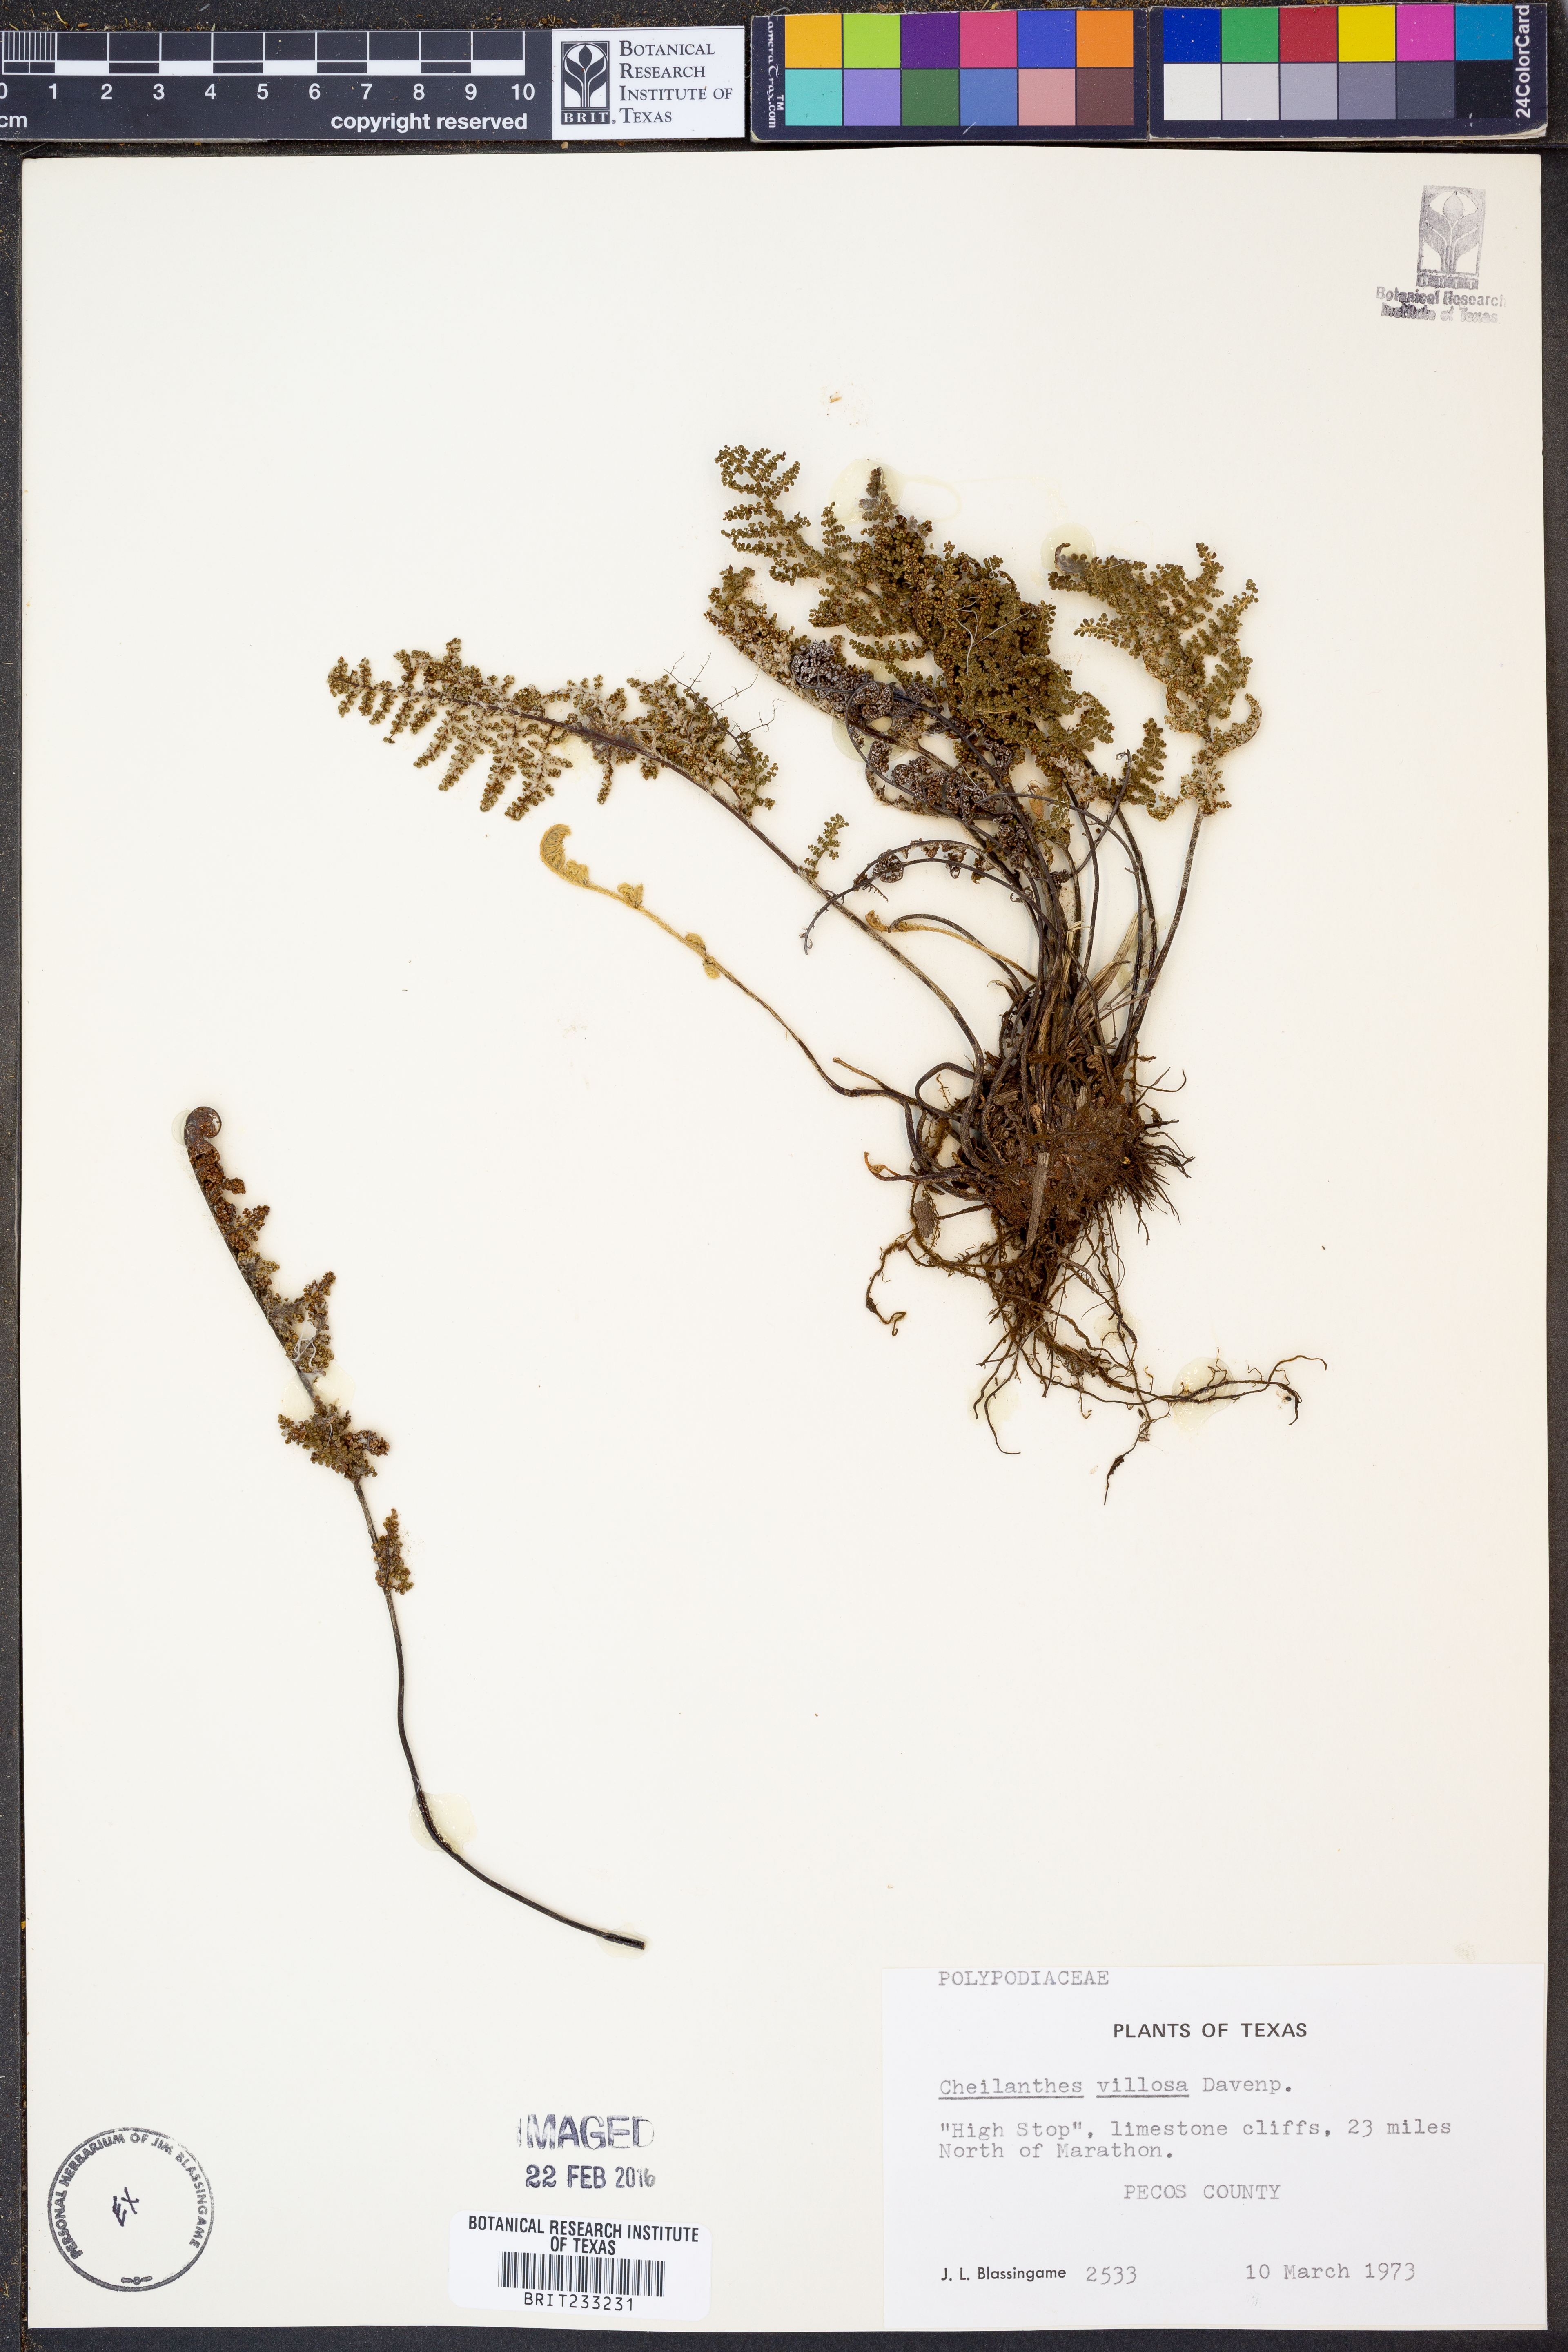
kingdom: Plantae
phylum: Tracheophyta
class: Polypodiopsida
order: Polypodiales
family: Pteridaceae
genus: Myriopteris
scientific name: Myriopteris windhamii
